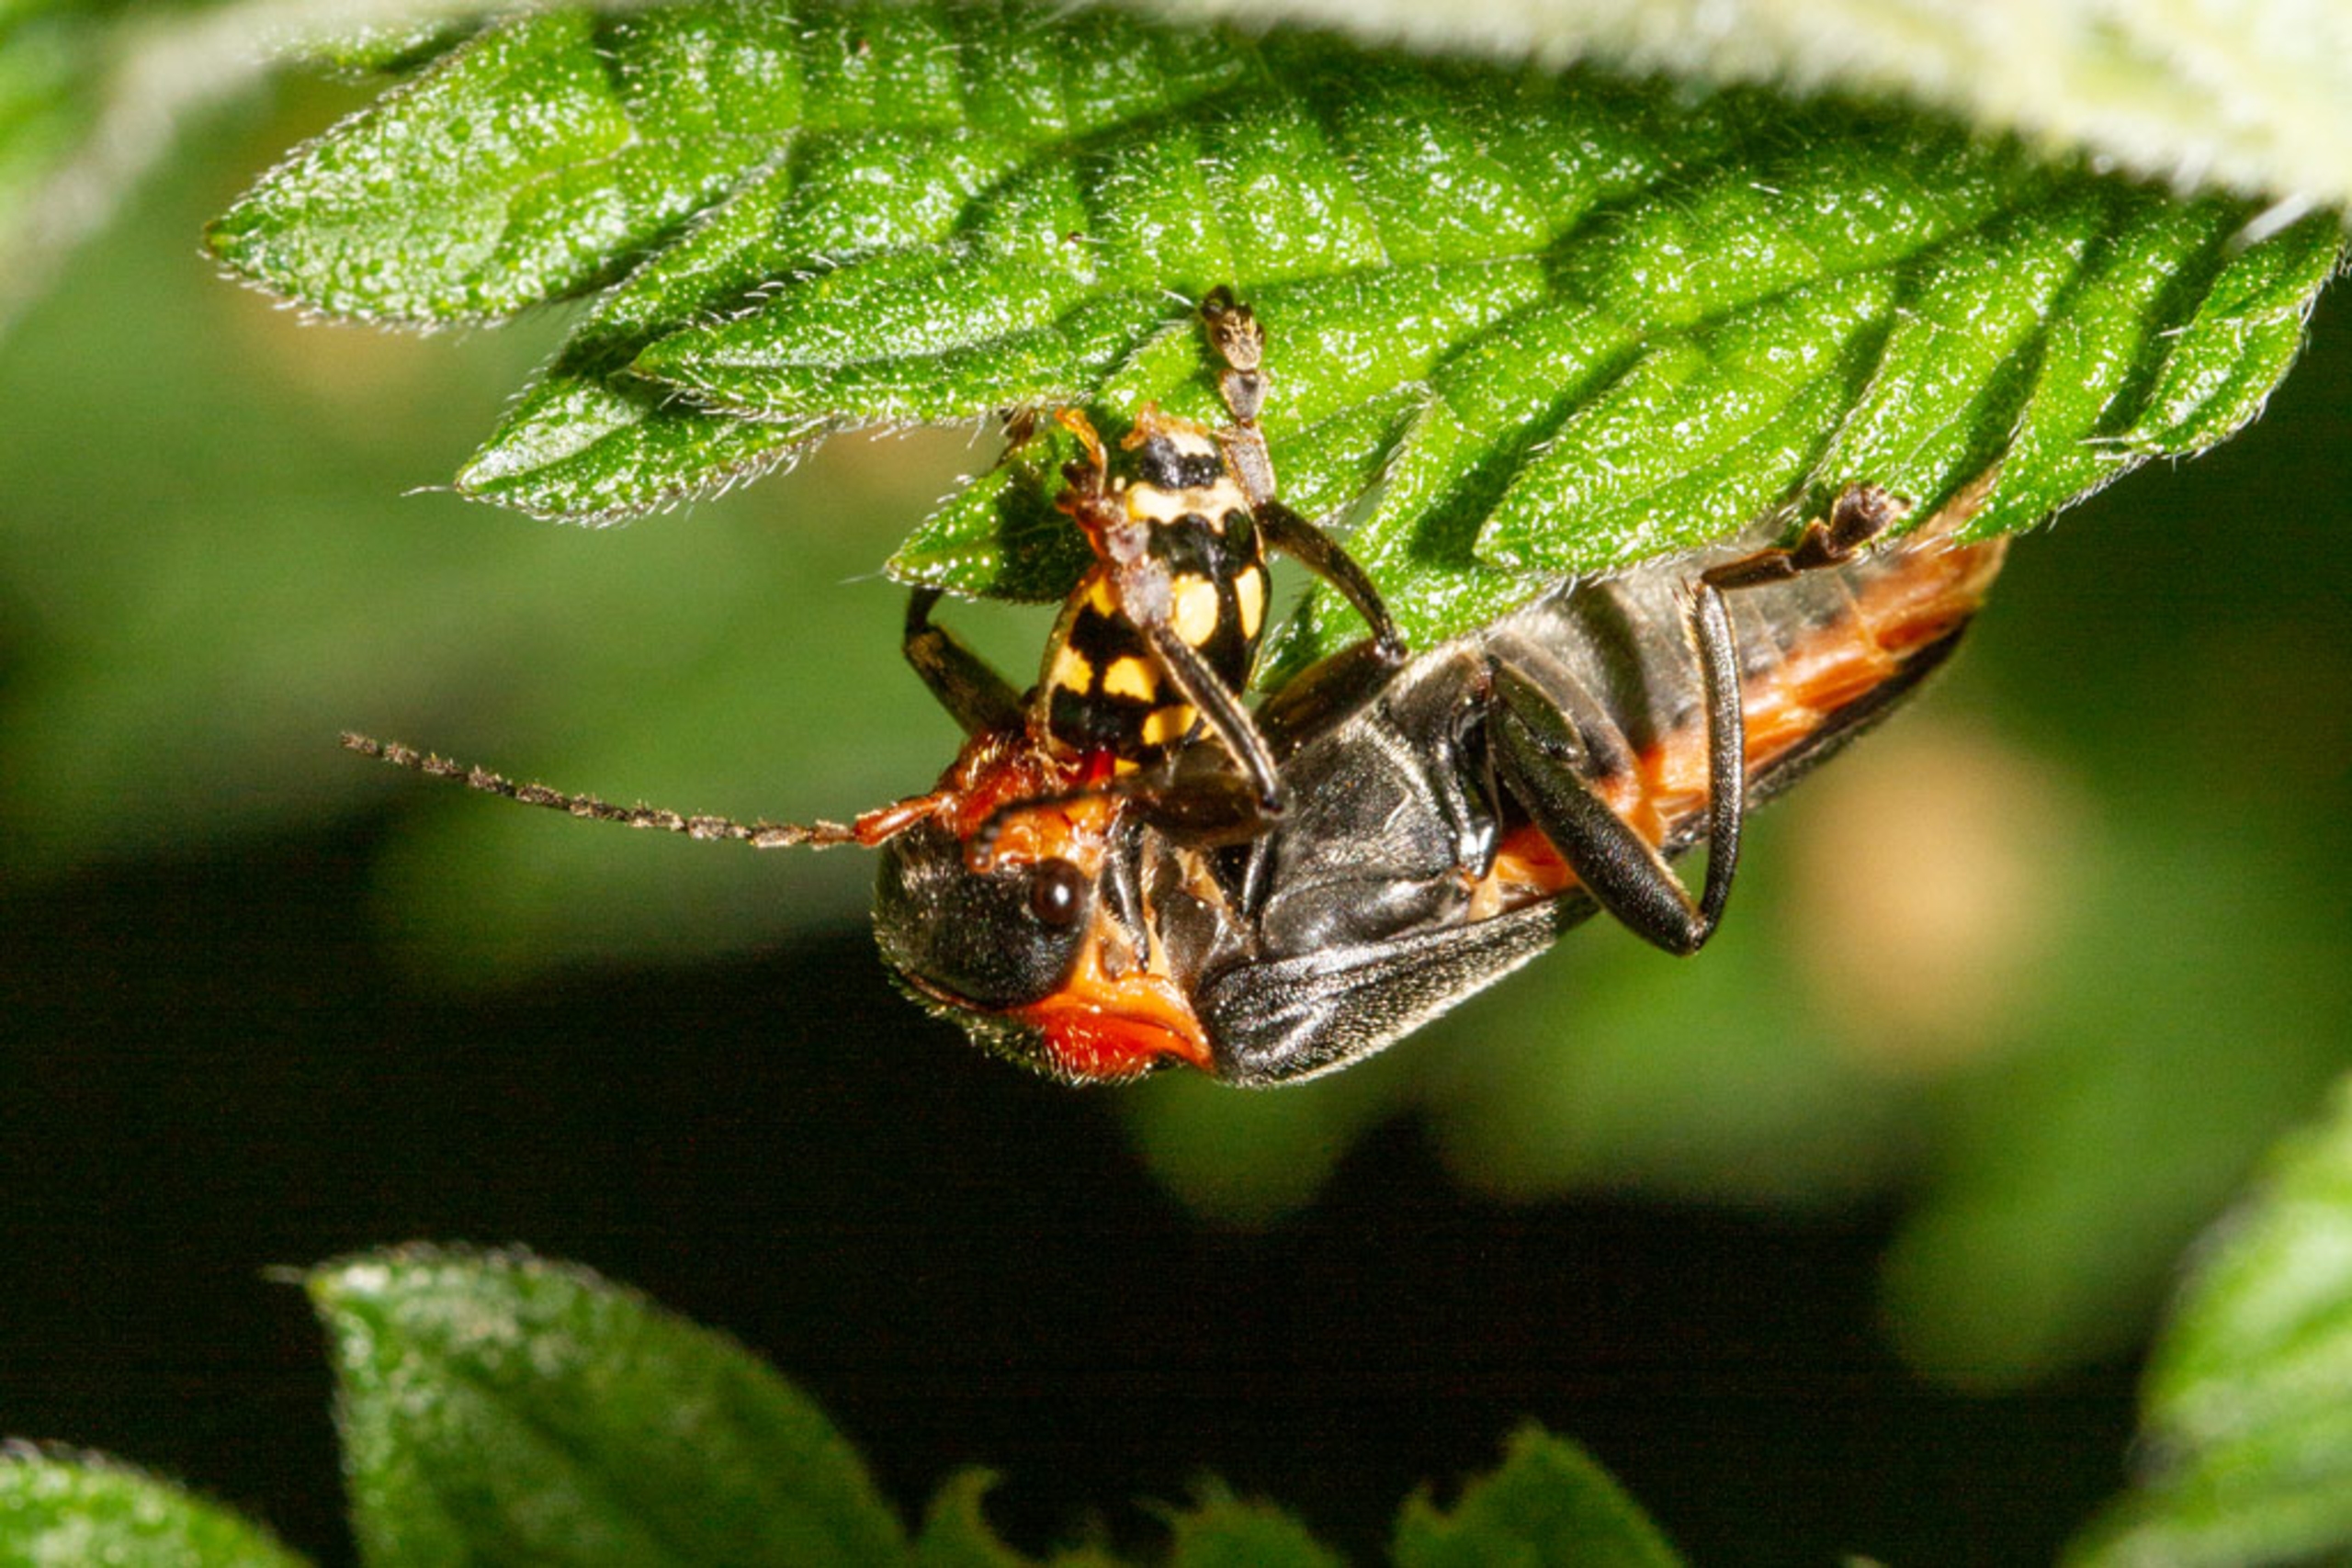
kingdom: Animalia
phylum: Arthropoda
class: Insecta
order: Coleoptera
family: Cantharidae
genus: Cantharis
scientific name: Cantharis fusca
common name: Stor blødvinge
